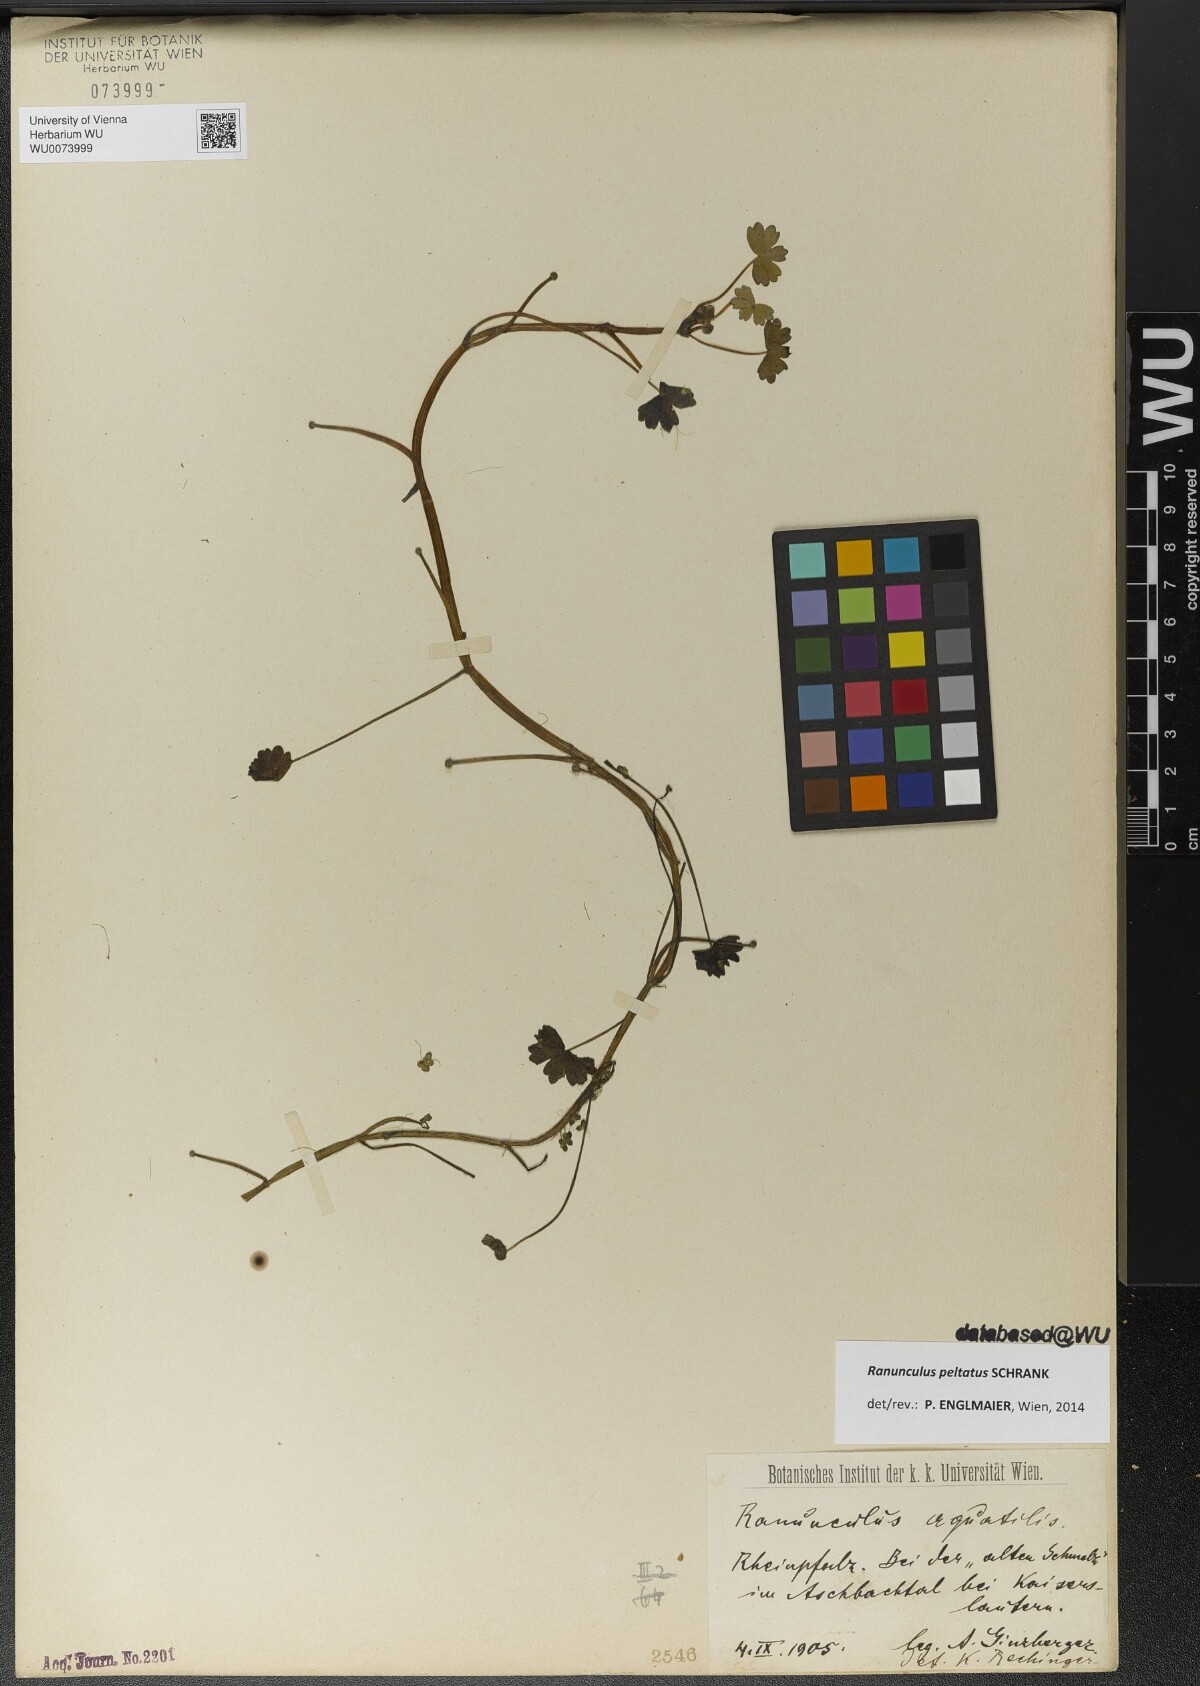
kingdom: Plantae
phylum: Tracheophyta
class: Magnoliopsida
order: Ranunculales
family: Ranunculaceae
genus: Ranunculus
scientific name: Ranunculus peltatus
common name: Pond water-crowfoot
